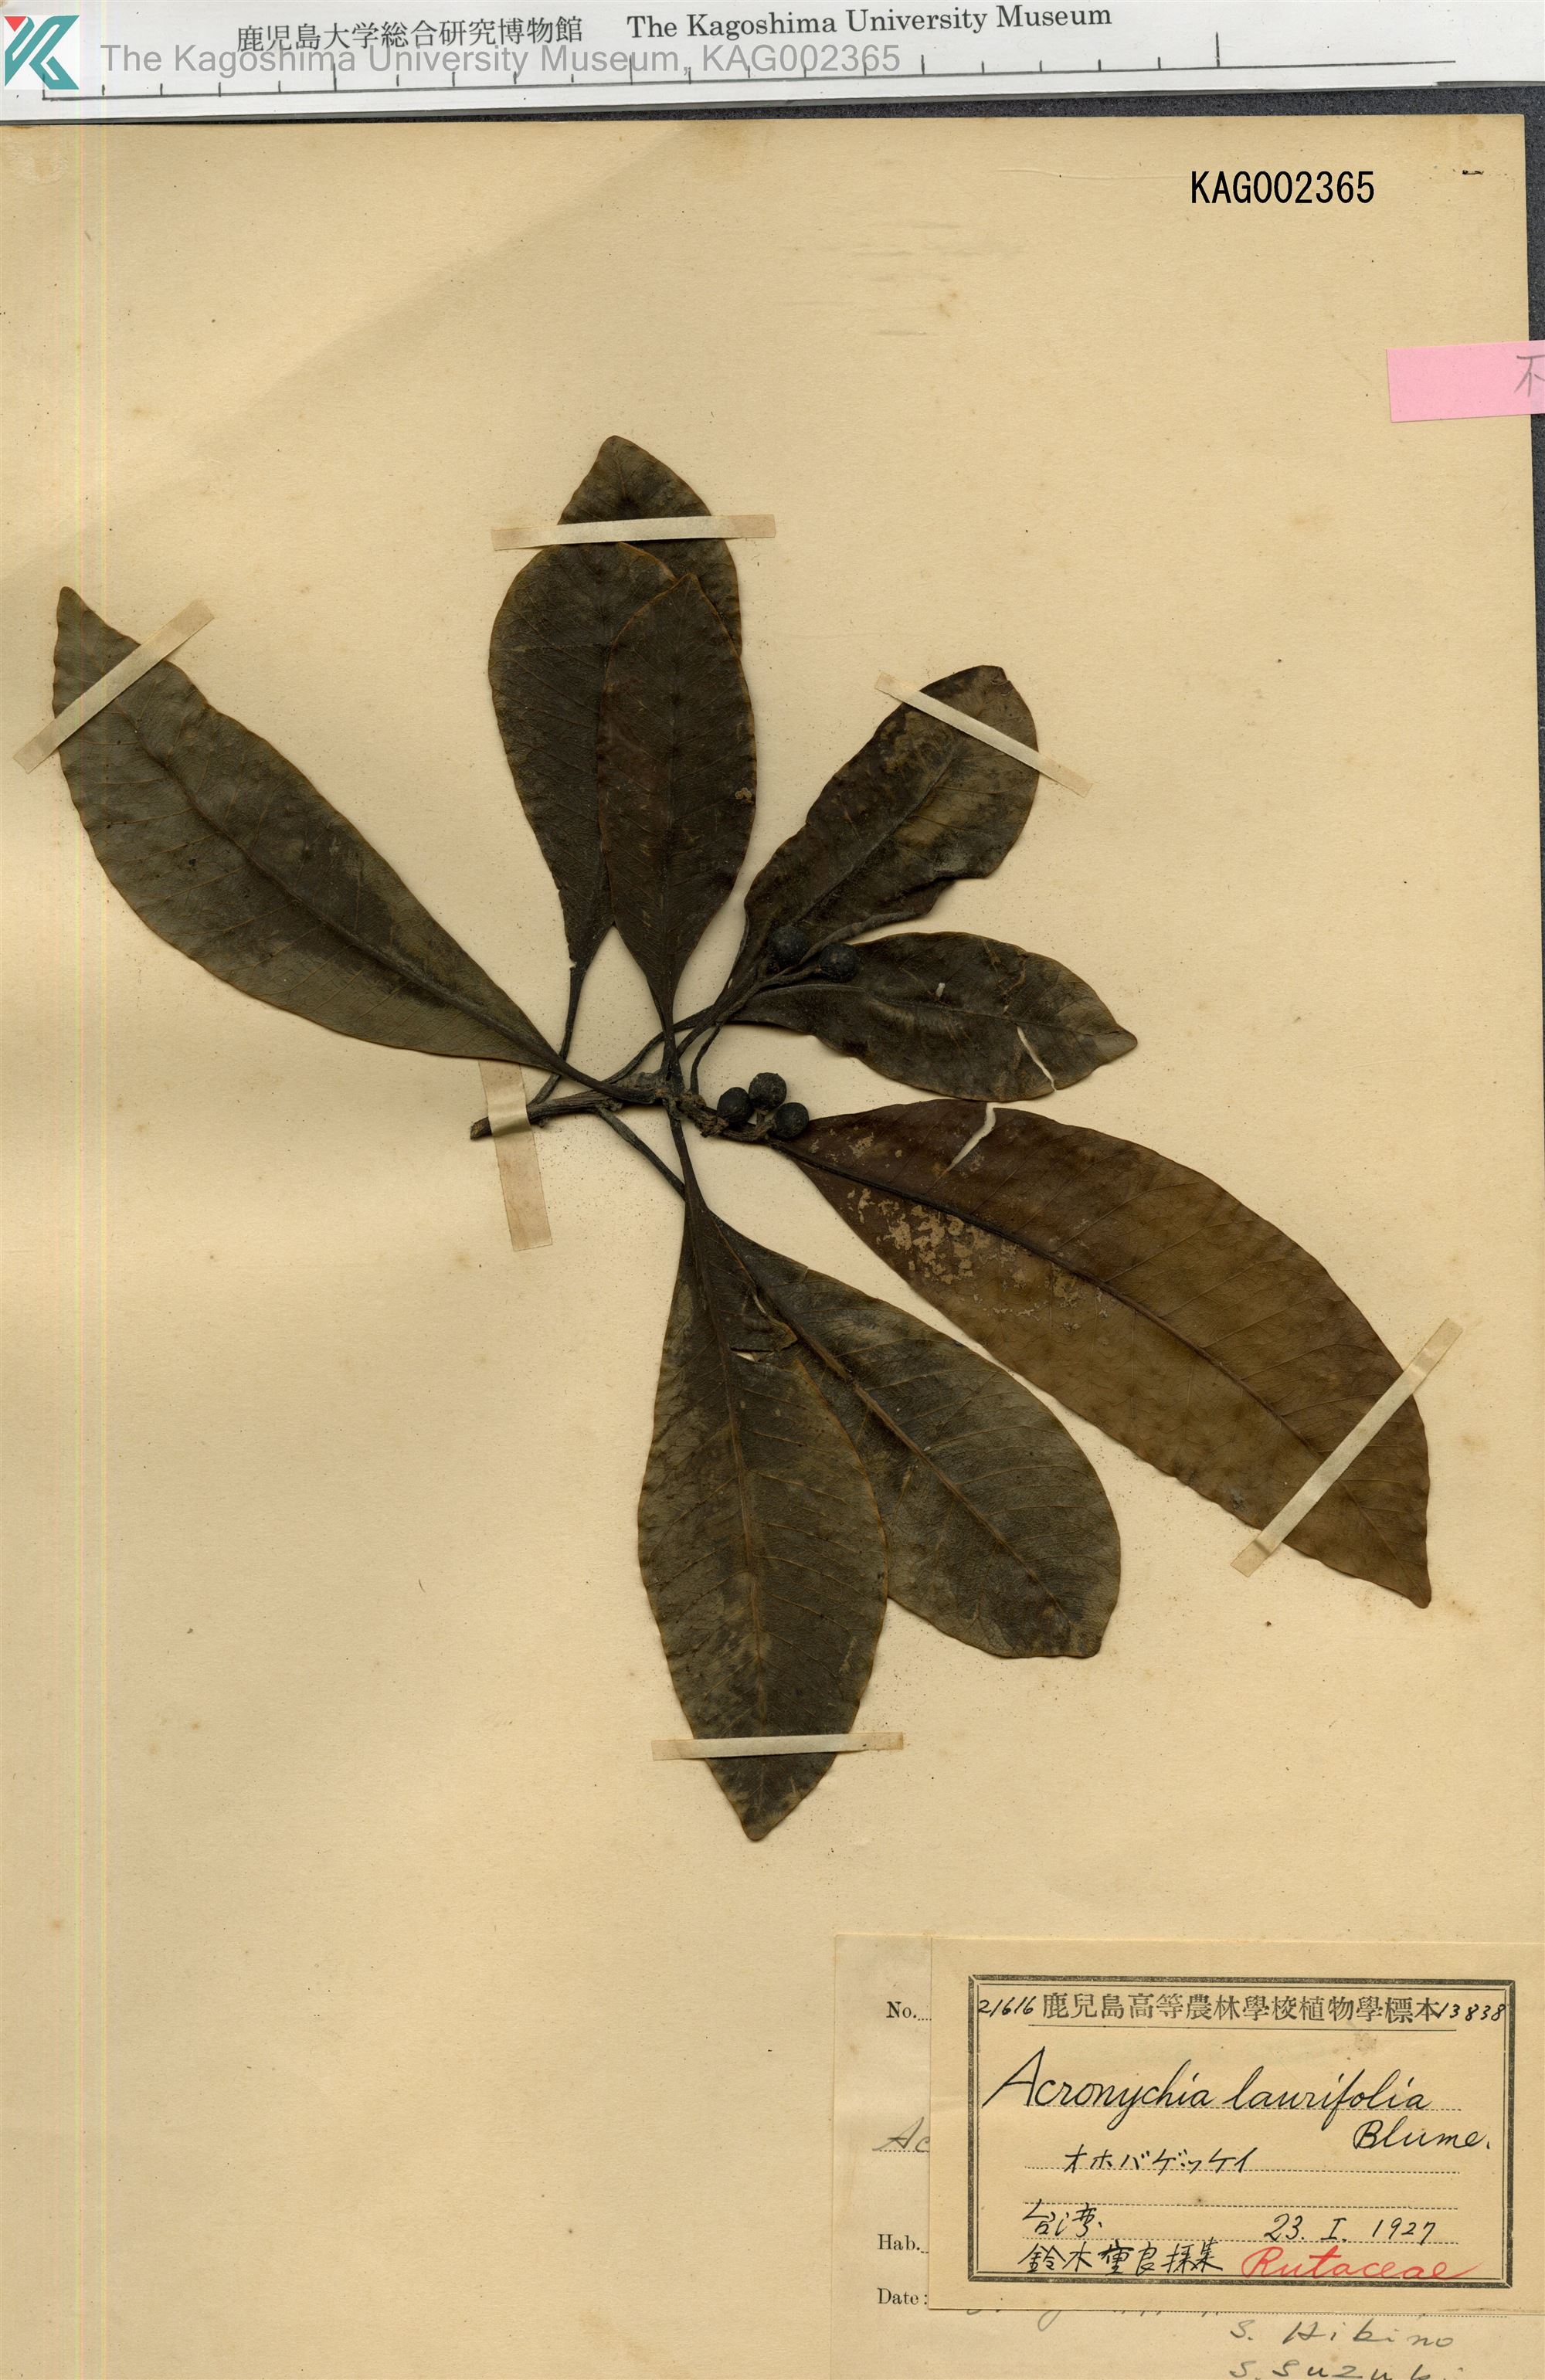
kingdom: Plantae
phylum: Tracheophyta
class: Magnoliopsida
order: Sapindales
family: Rutaceae
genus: Acronychia
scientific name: Acronychia pedunculata
